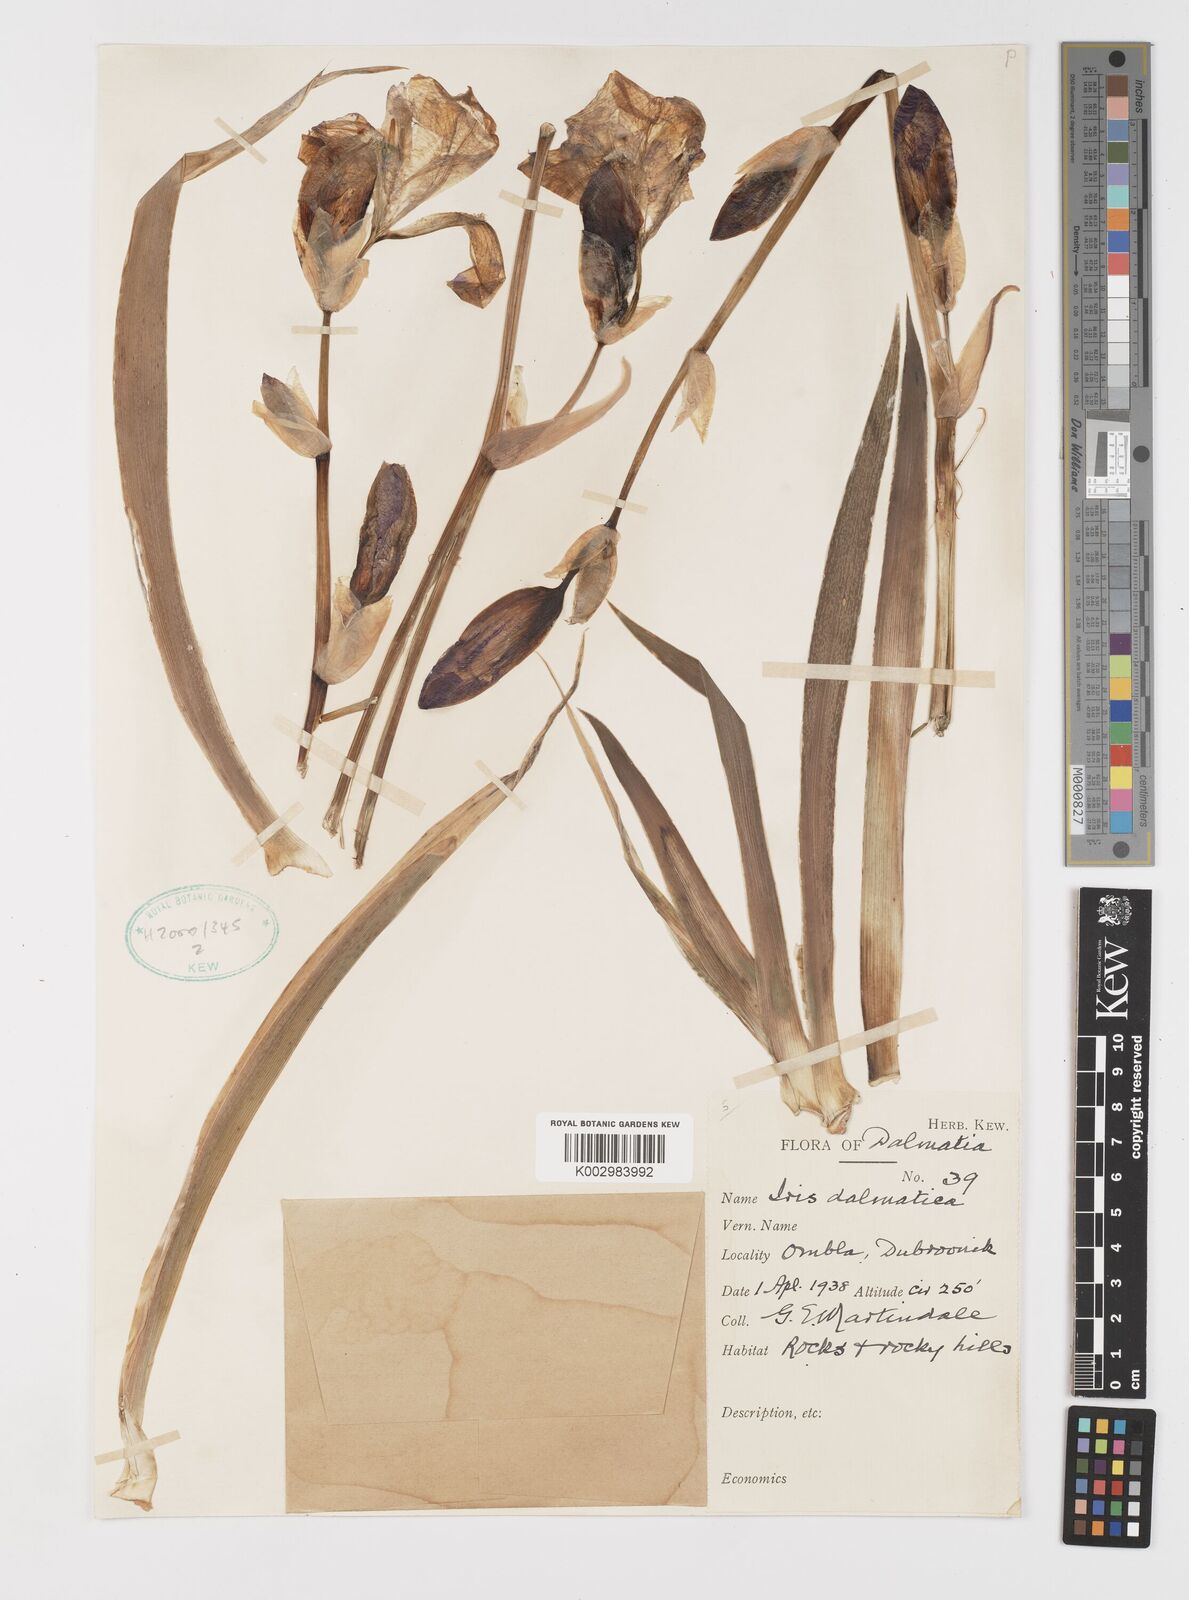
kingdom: Plantae
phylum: Tracheophyta
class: Liliopsida
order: Asparagales
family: Iridaceae
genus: Iris
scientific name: Iris halophila
